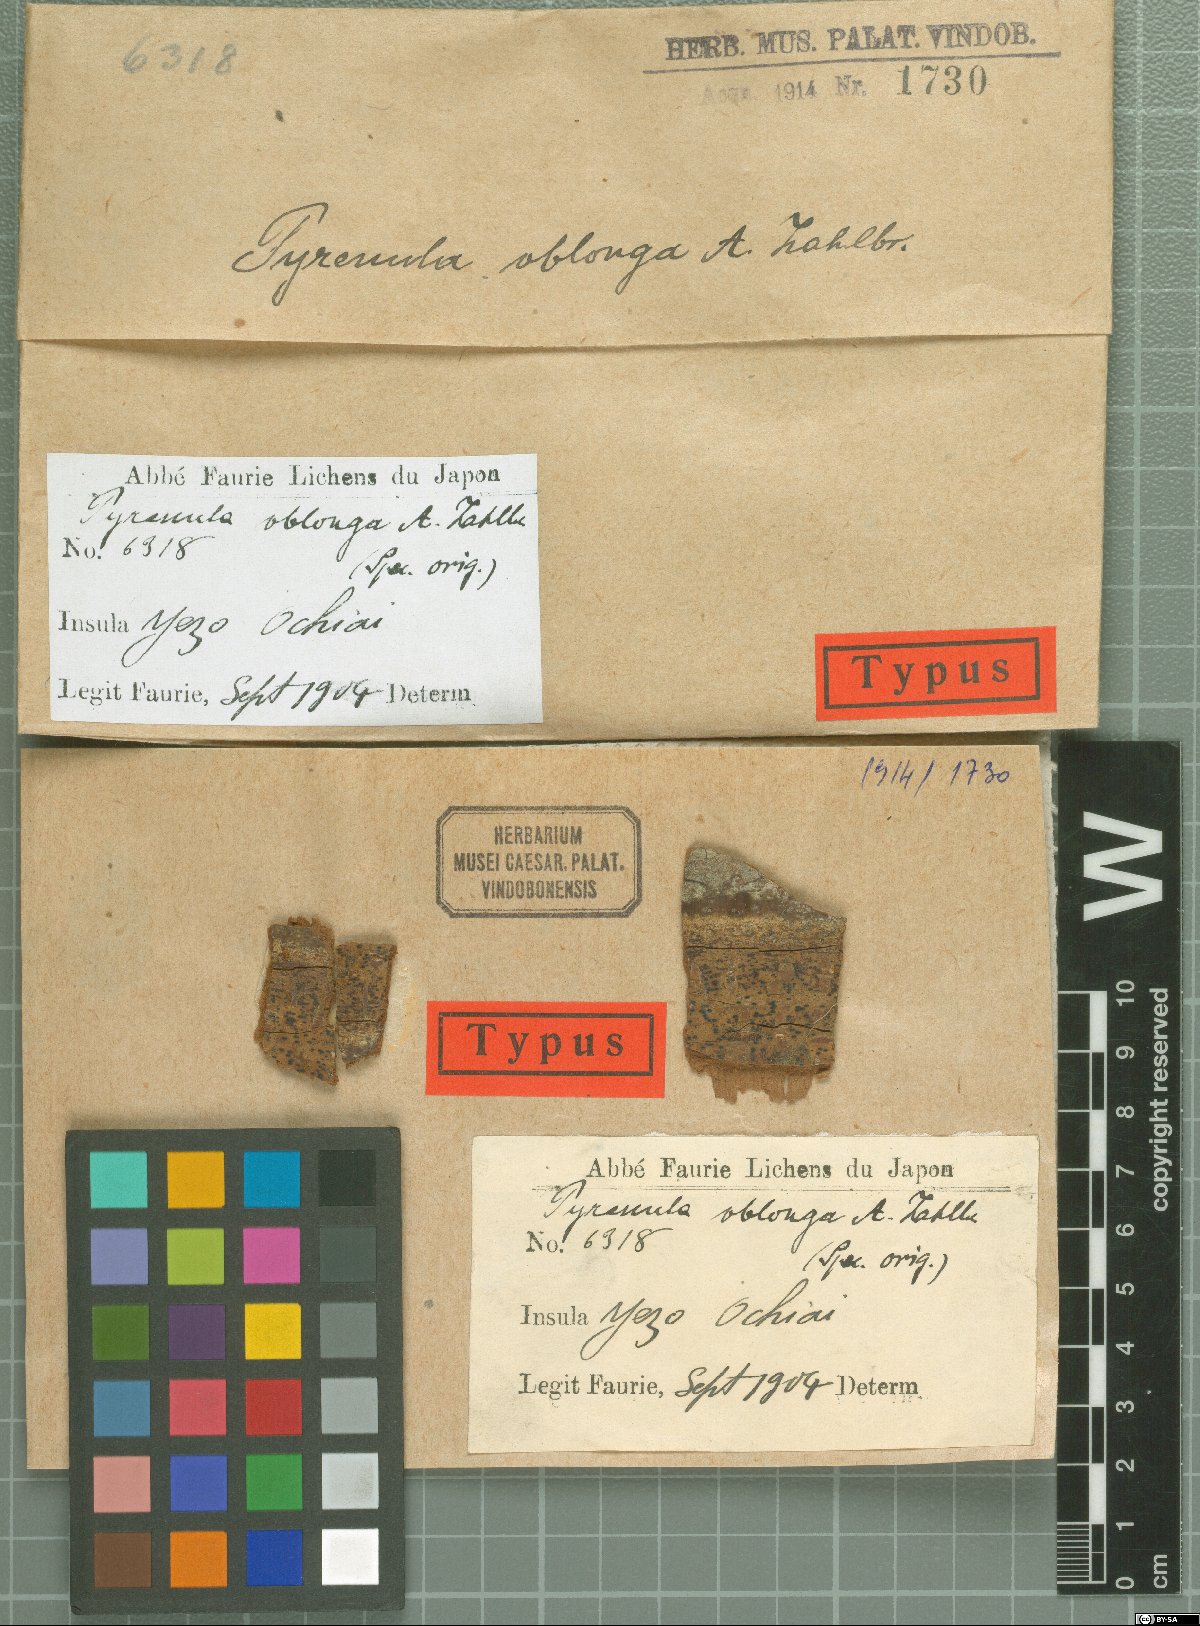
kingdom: Fungi
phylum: Ascomycota
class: Eurotiomycetes
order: Pyrenulales
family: Pyrenulaceae
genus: Pyrenula
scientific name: Pyrenula
